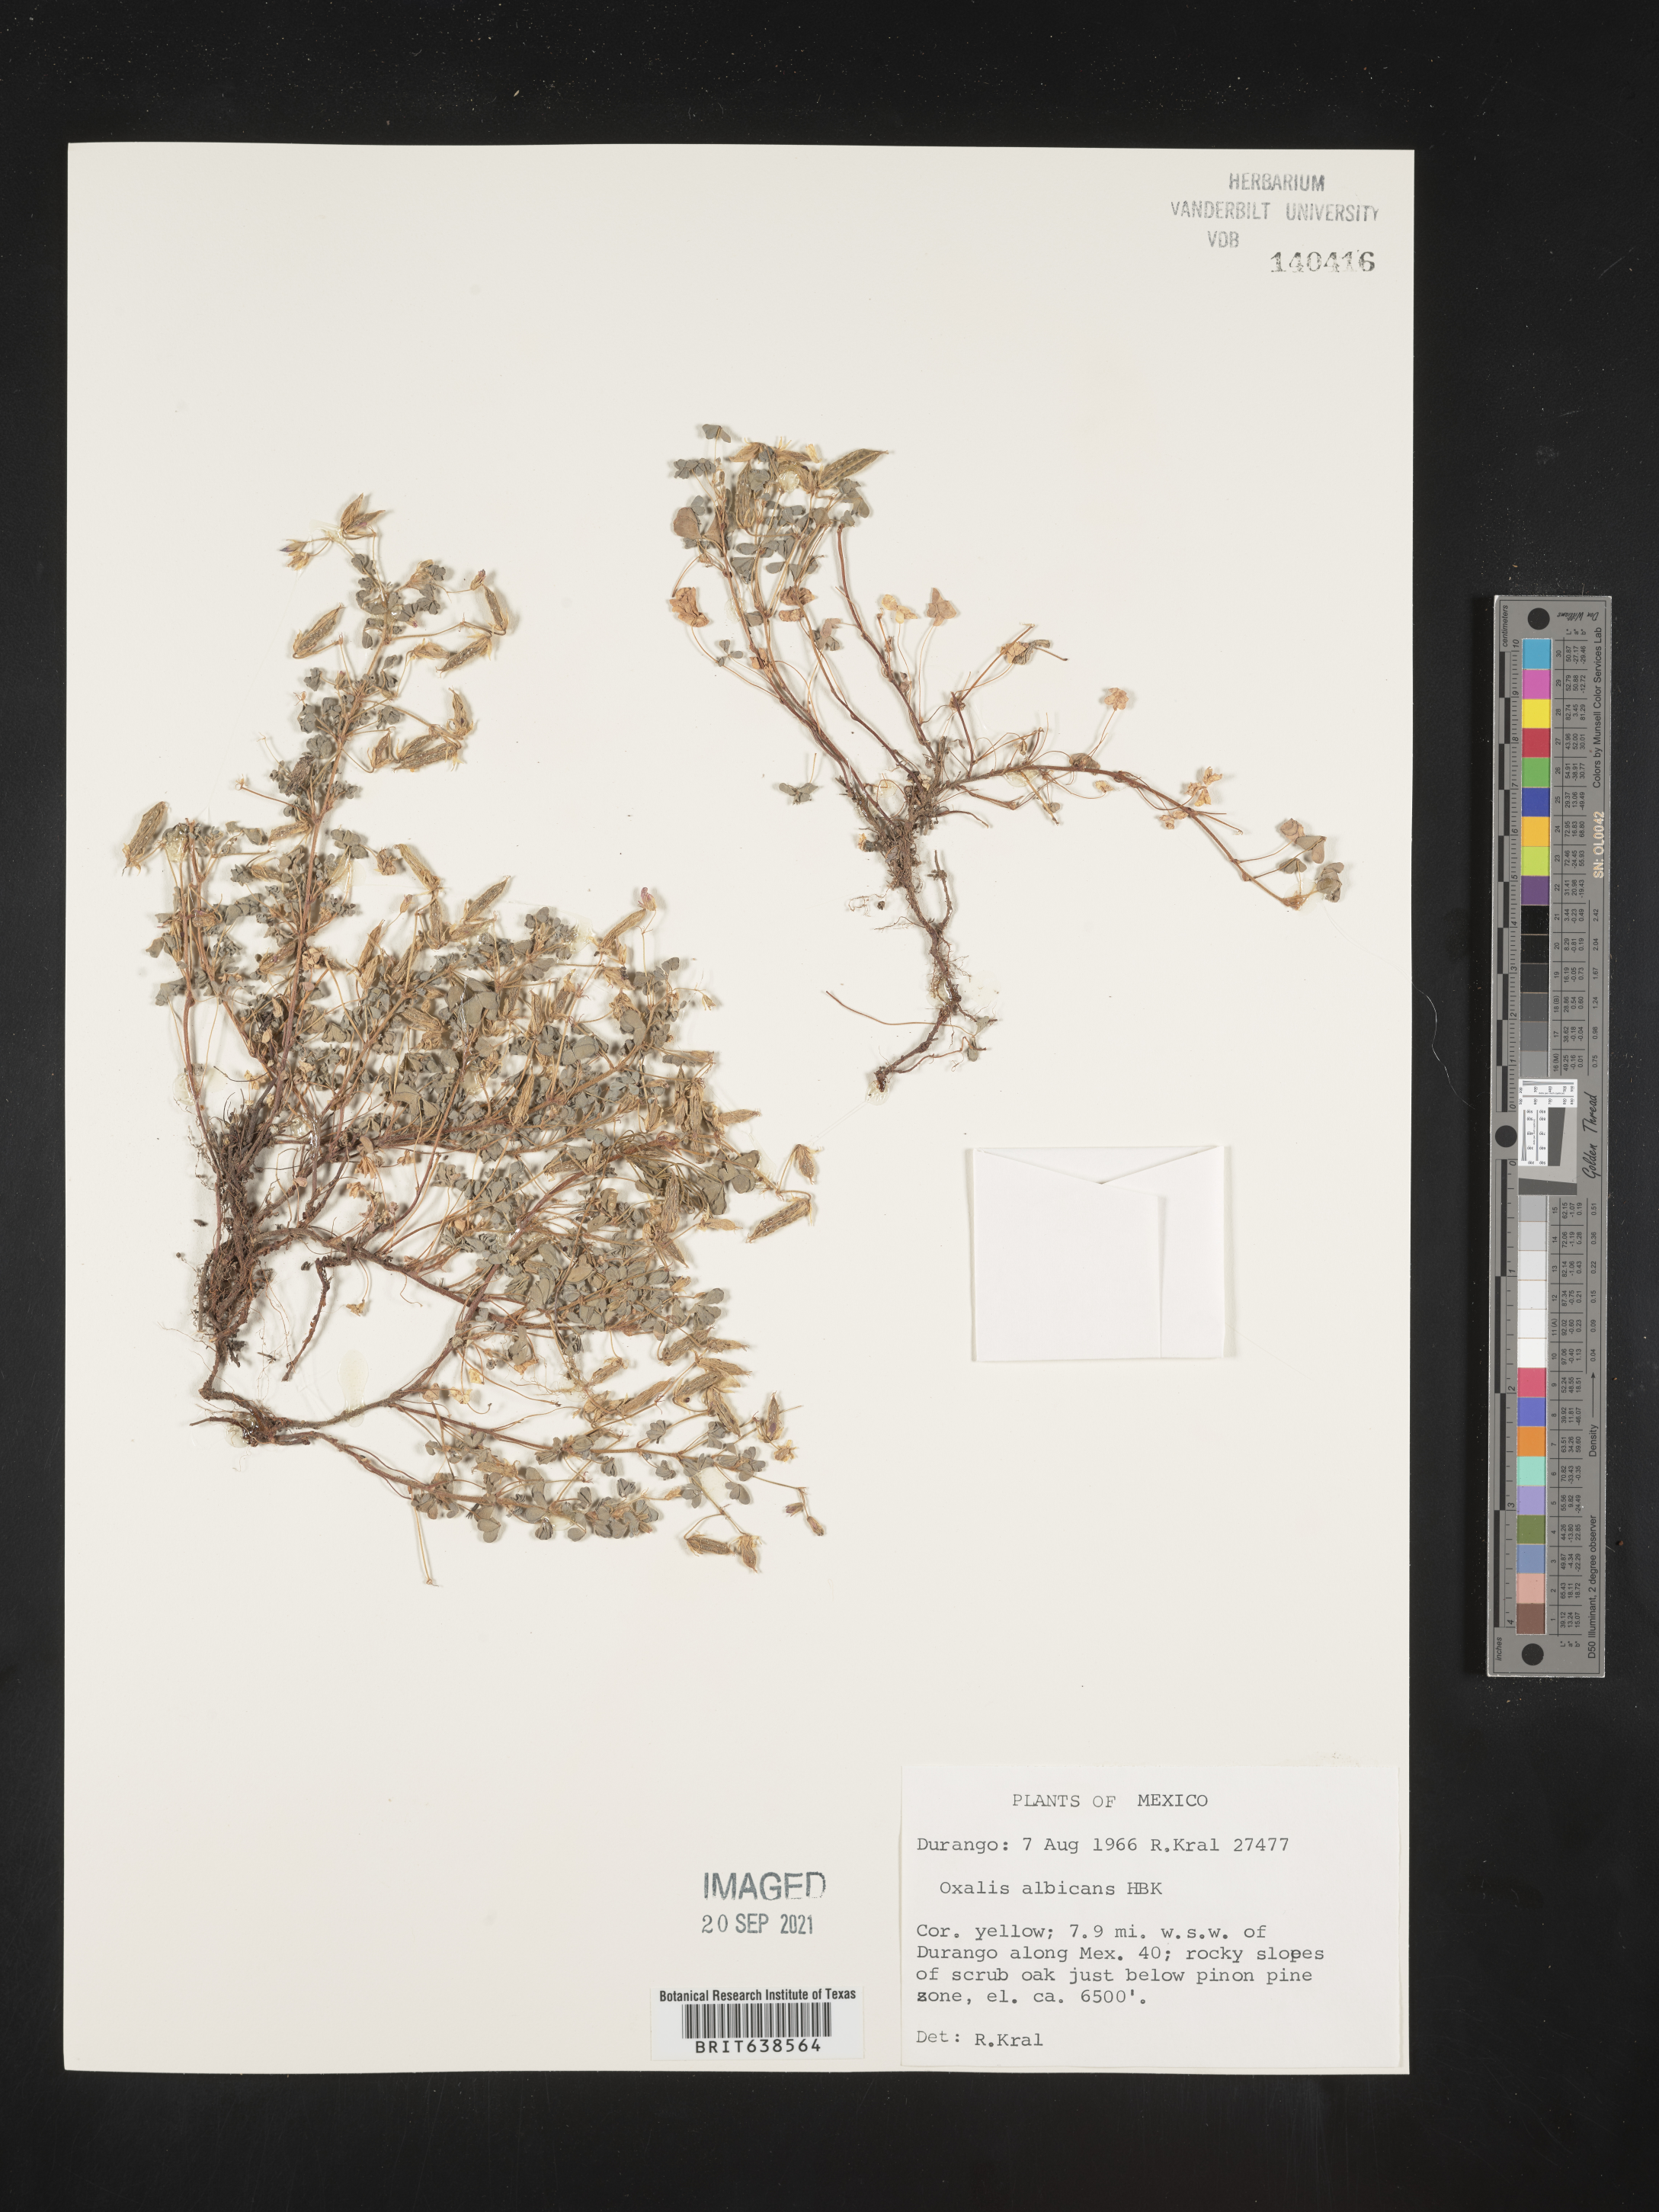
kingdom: Plantae
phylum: Tracheophyta
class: Magnoliopsida
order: Oxalidales
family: Oxalidaceae
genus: Oxalis
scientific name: Oxalis
